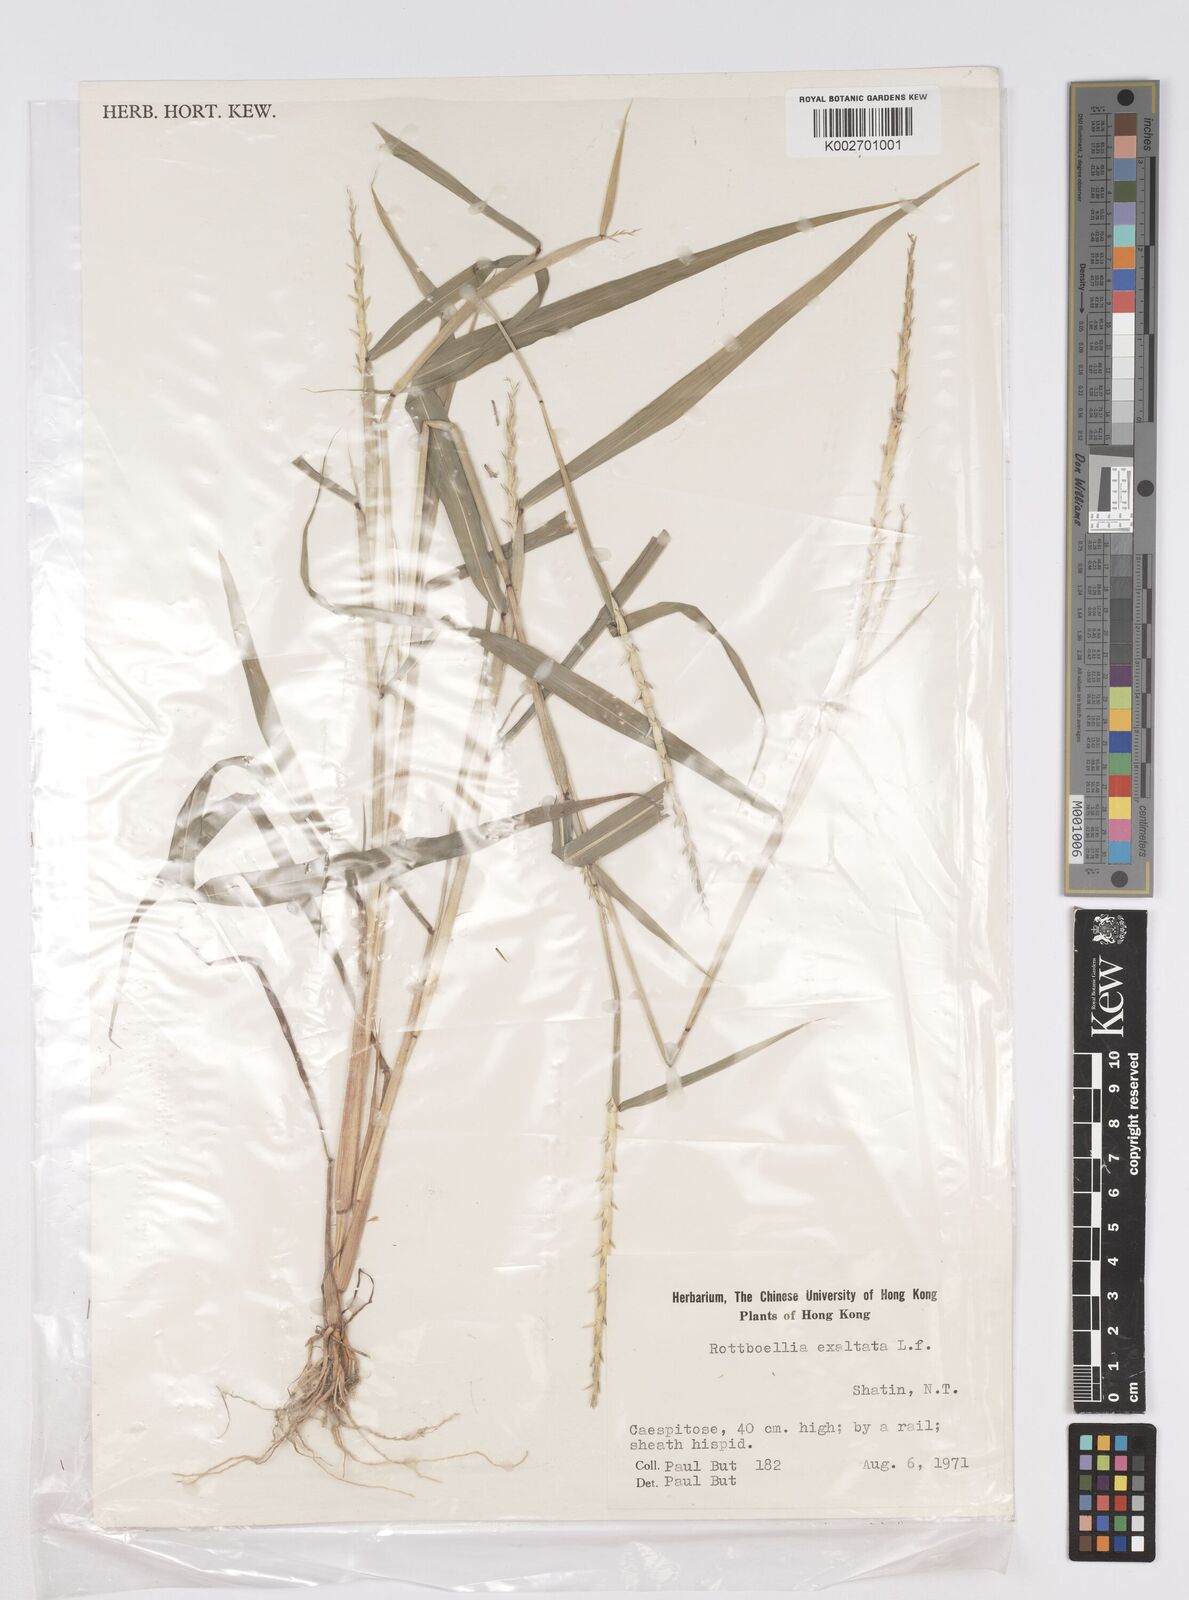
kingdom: Plantae
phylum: Tracheophyta
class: Liliopsida
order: Poales
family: Poaceae
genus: Rottboellia
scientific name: Rottboellia cochinchinensis
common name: Itchgrass
